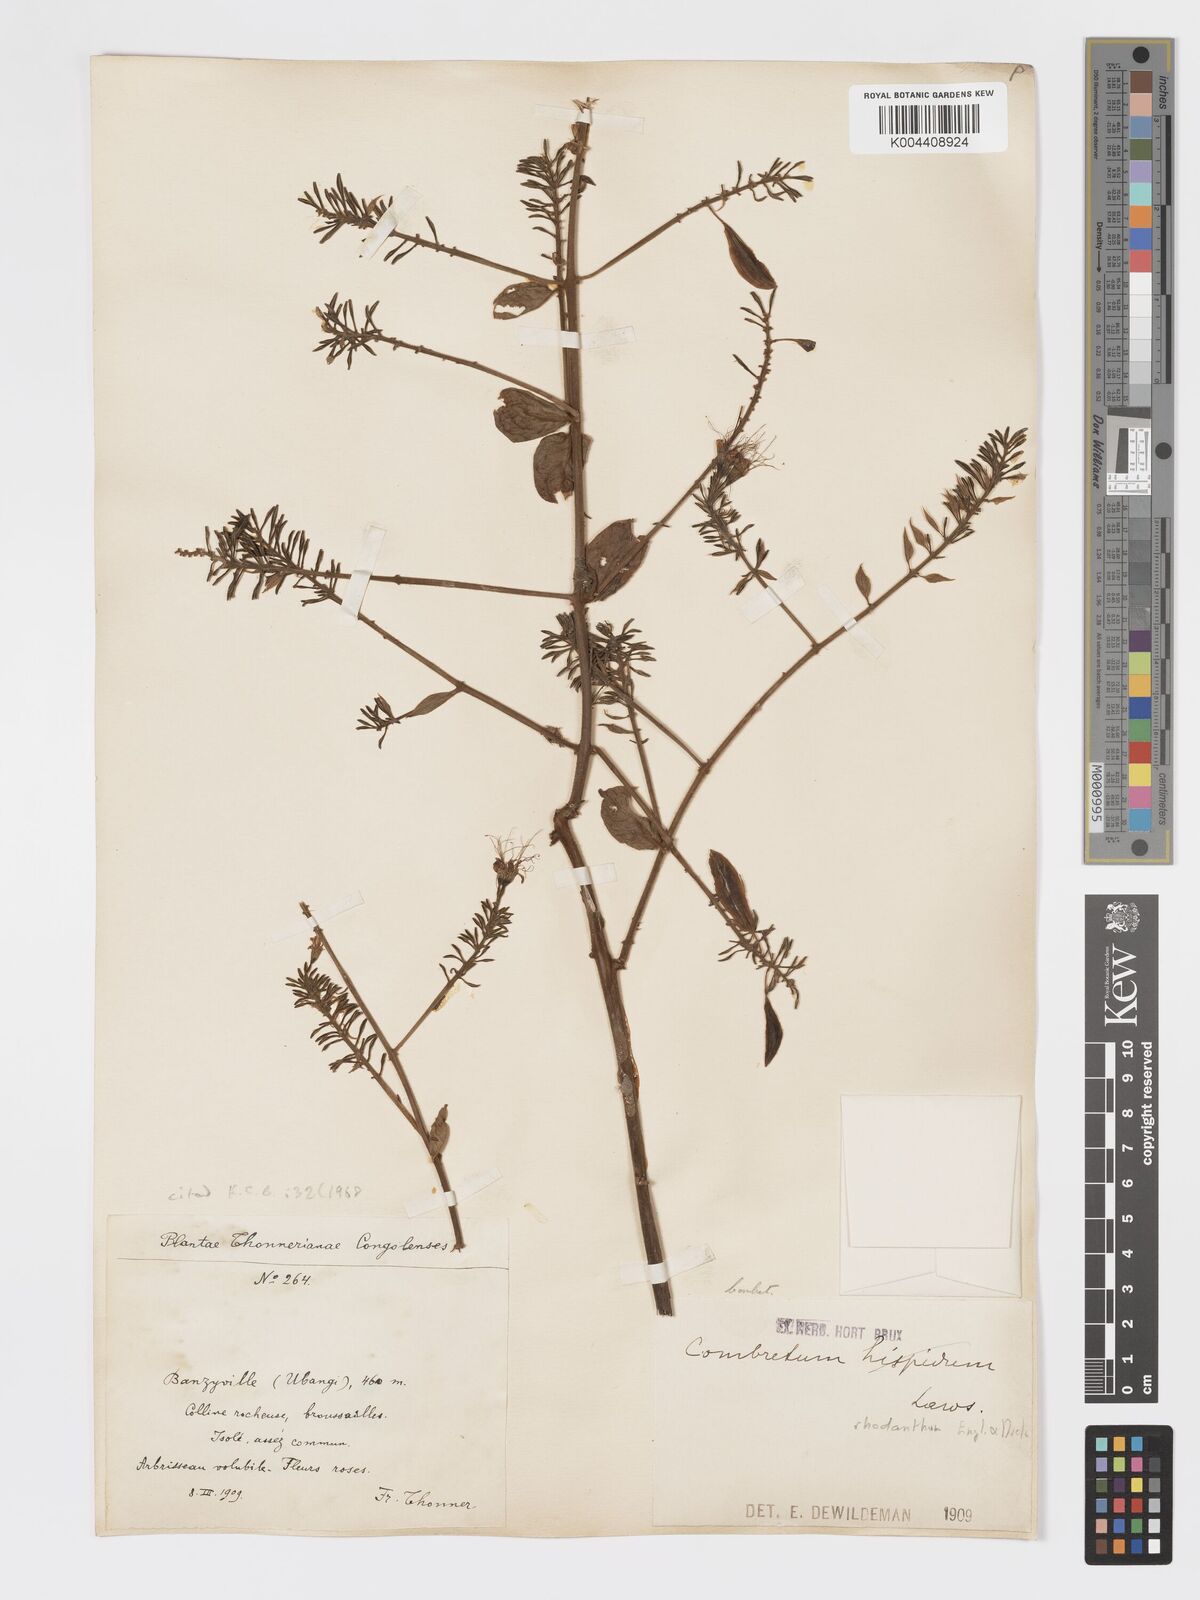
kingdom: Plantae
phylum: Tracheophyta
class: Magnoliopsida
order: Myrtales
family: Combretaceae
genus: Combretum
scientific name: Combretum comosum
